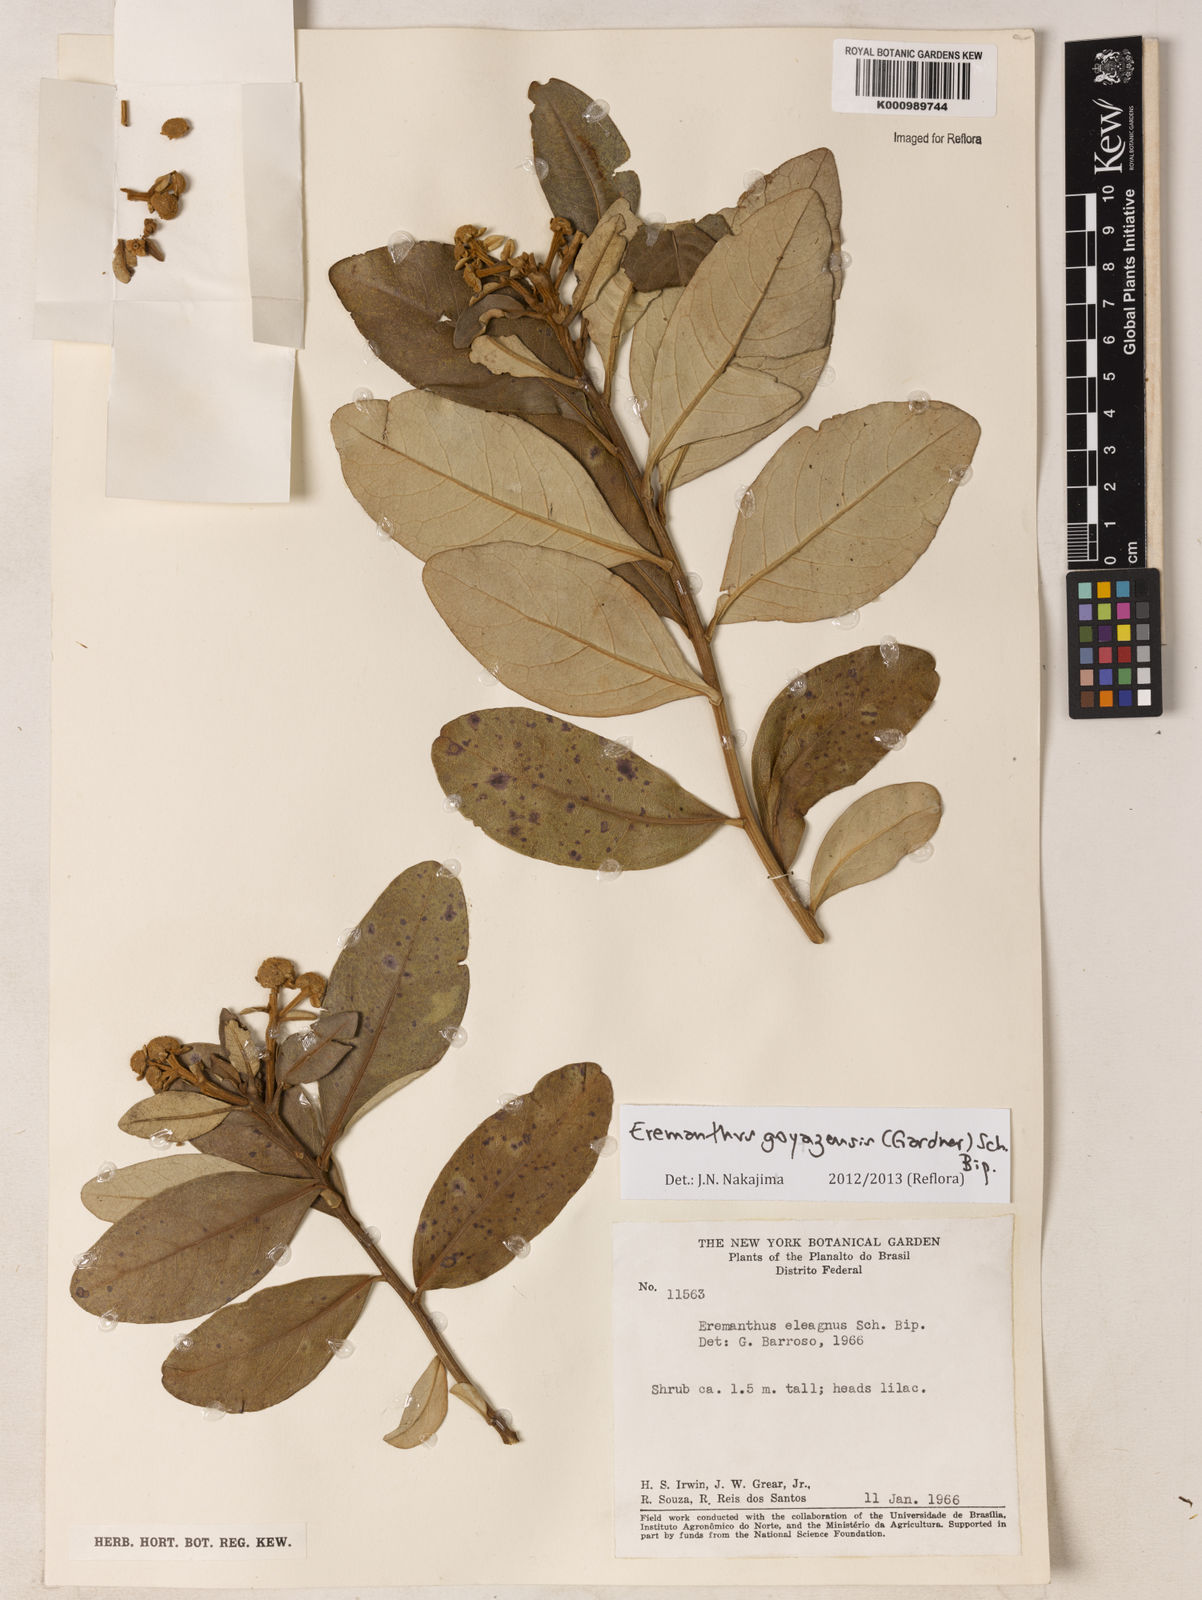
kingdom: Plantae
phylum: Tracheophyta
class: Magnoliopsida
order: Asterales
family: Asteraceae
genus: Eremanthus
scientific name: Eremanthus goyazensis
